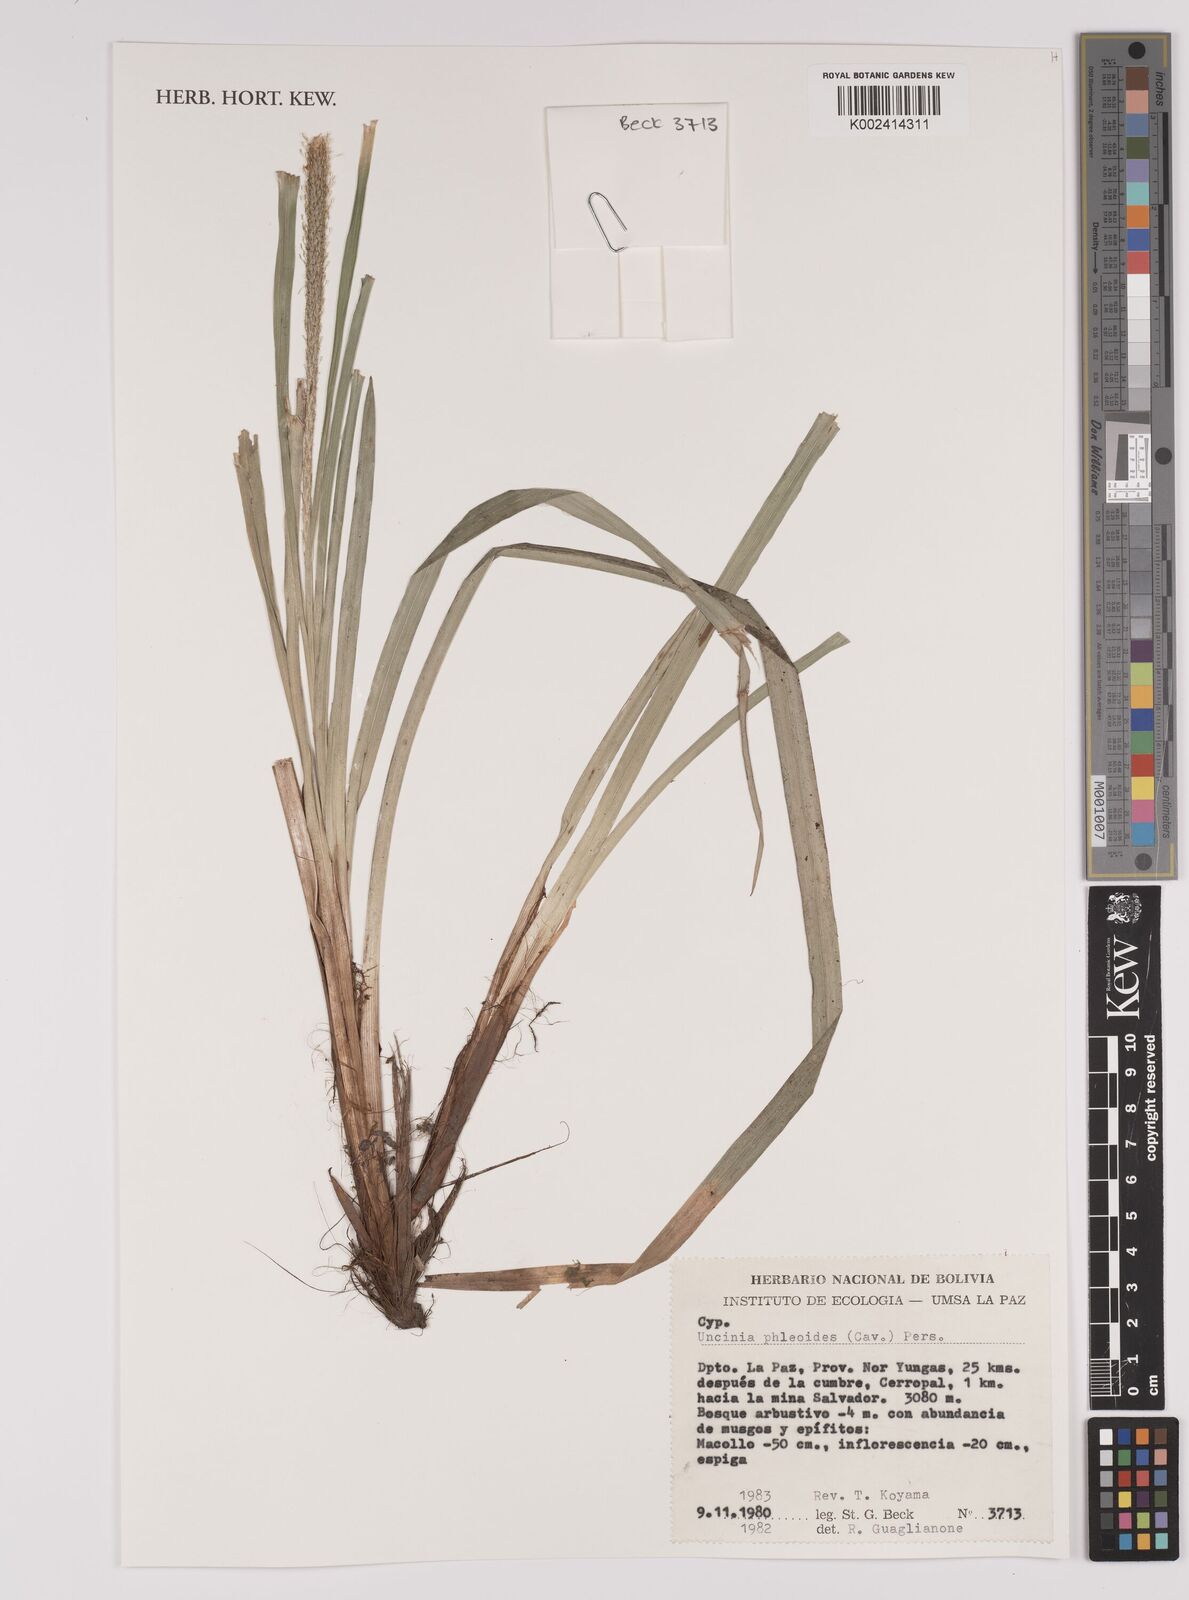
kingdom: Plantae
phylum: Tracheophyta
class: Liliopsida
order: Poales
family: Cyperaceae
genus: Carex
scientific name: Carex phleoides
